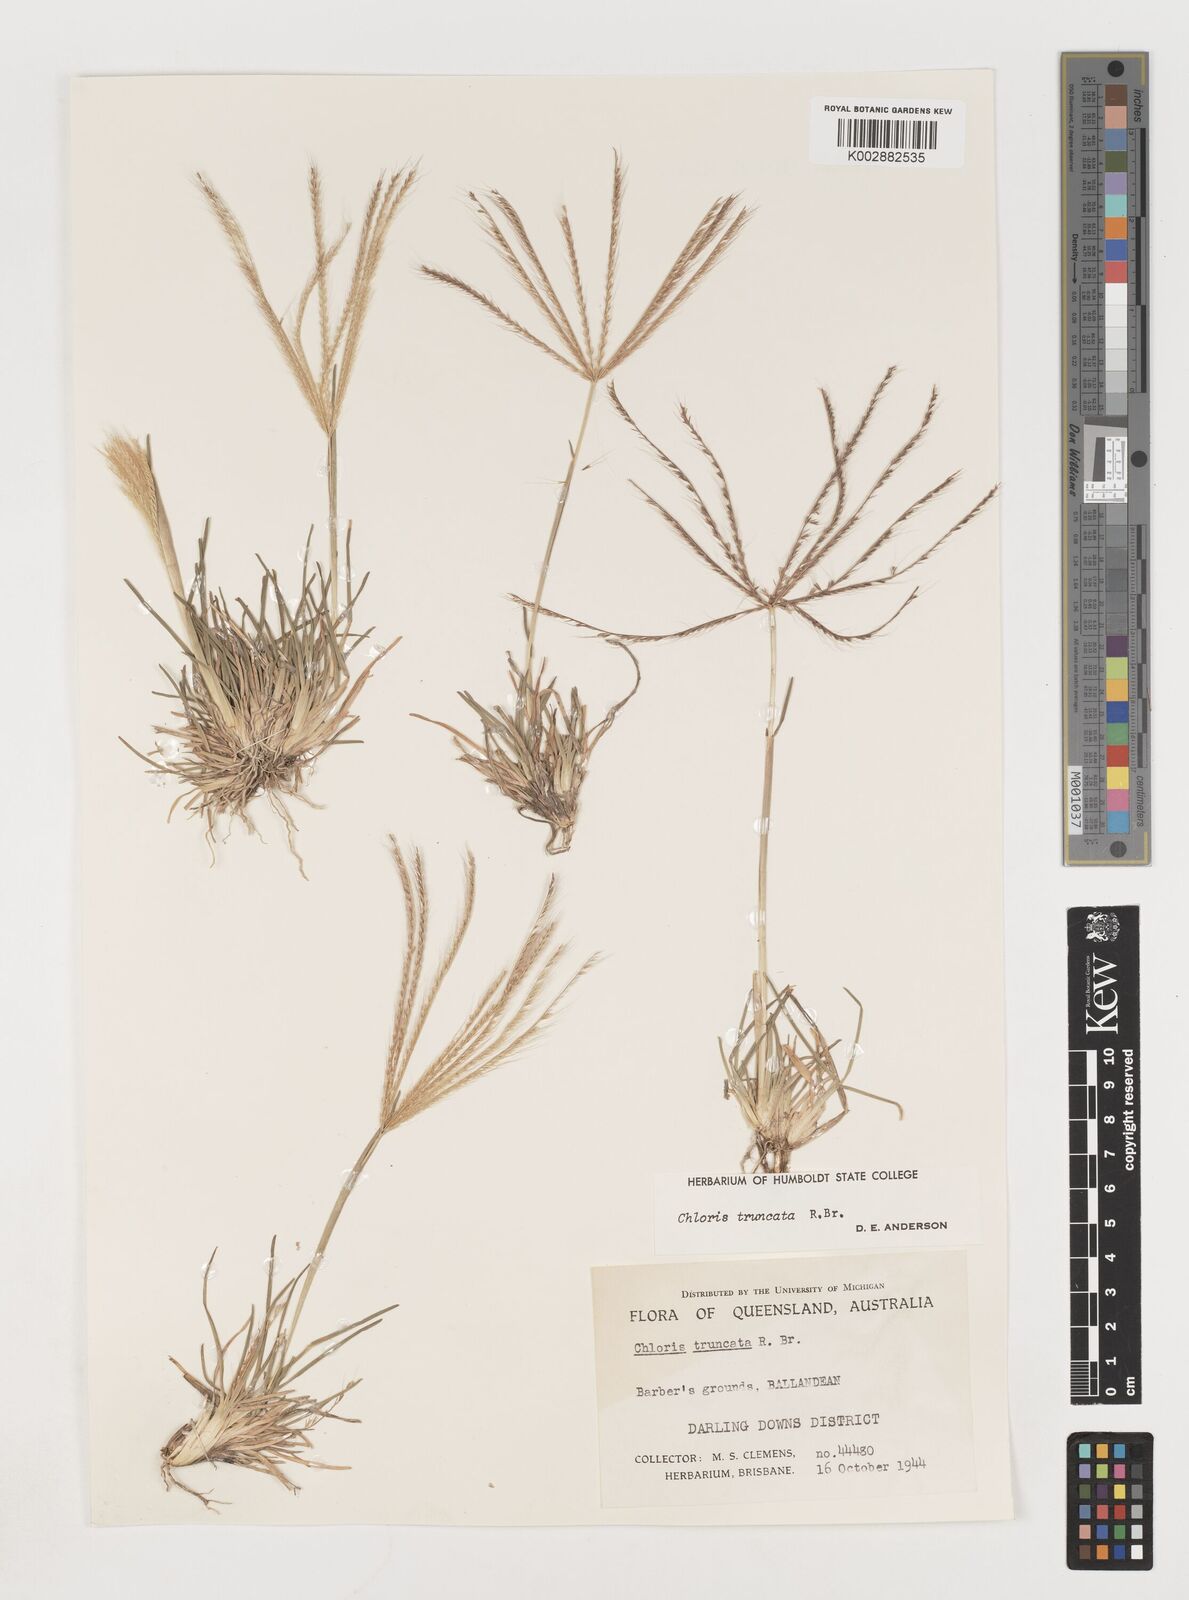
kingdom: Plantae
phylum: Tracheophyta
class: Liliopsida
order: Poales
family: Poaceae
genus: Chloris
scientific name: Chloris truncata
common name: Windmill-grass
